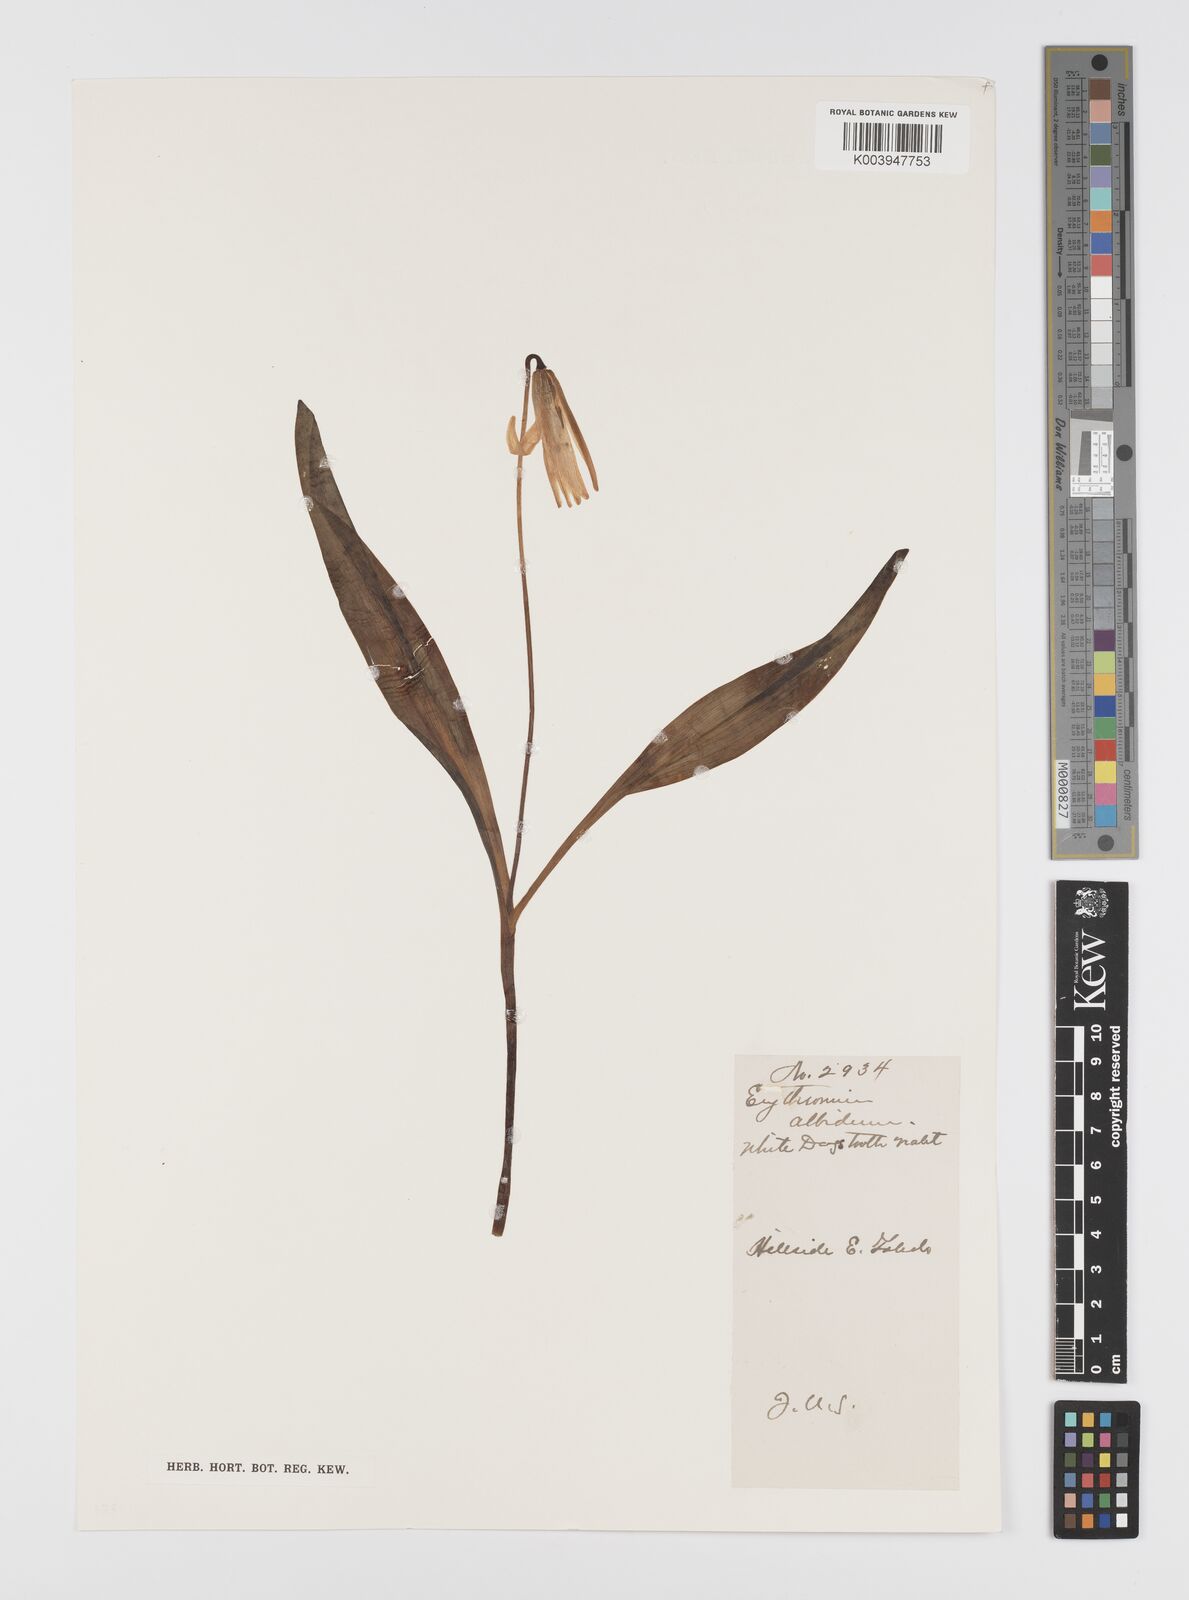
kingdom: Plantae
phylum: Tracheophyta
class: Liliopsida
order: Liliales
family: Liliaceae
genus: Erythronium
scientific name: Erythronium albidum
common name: White trout-lily
